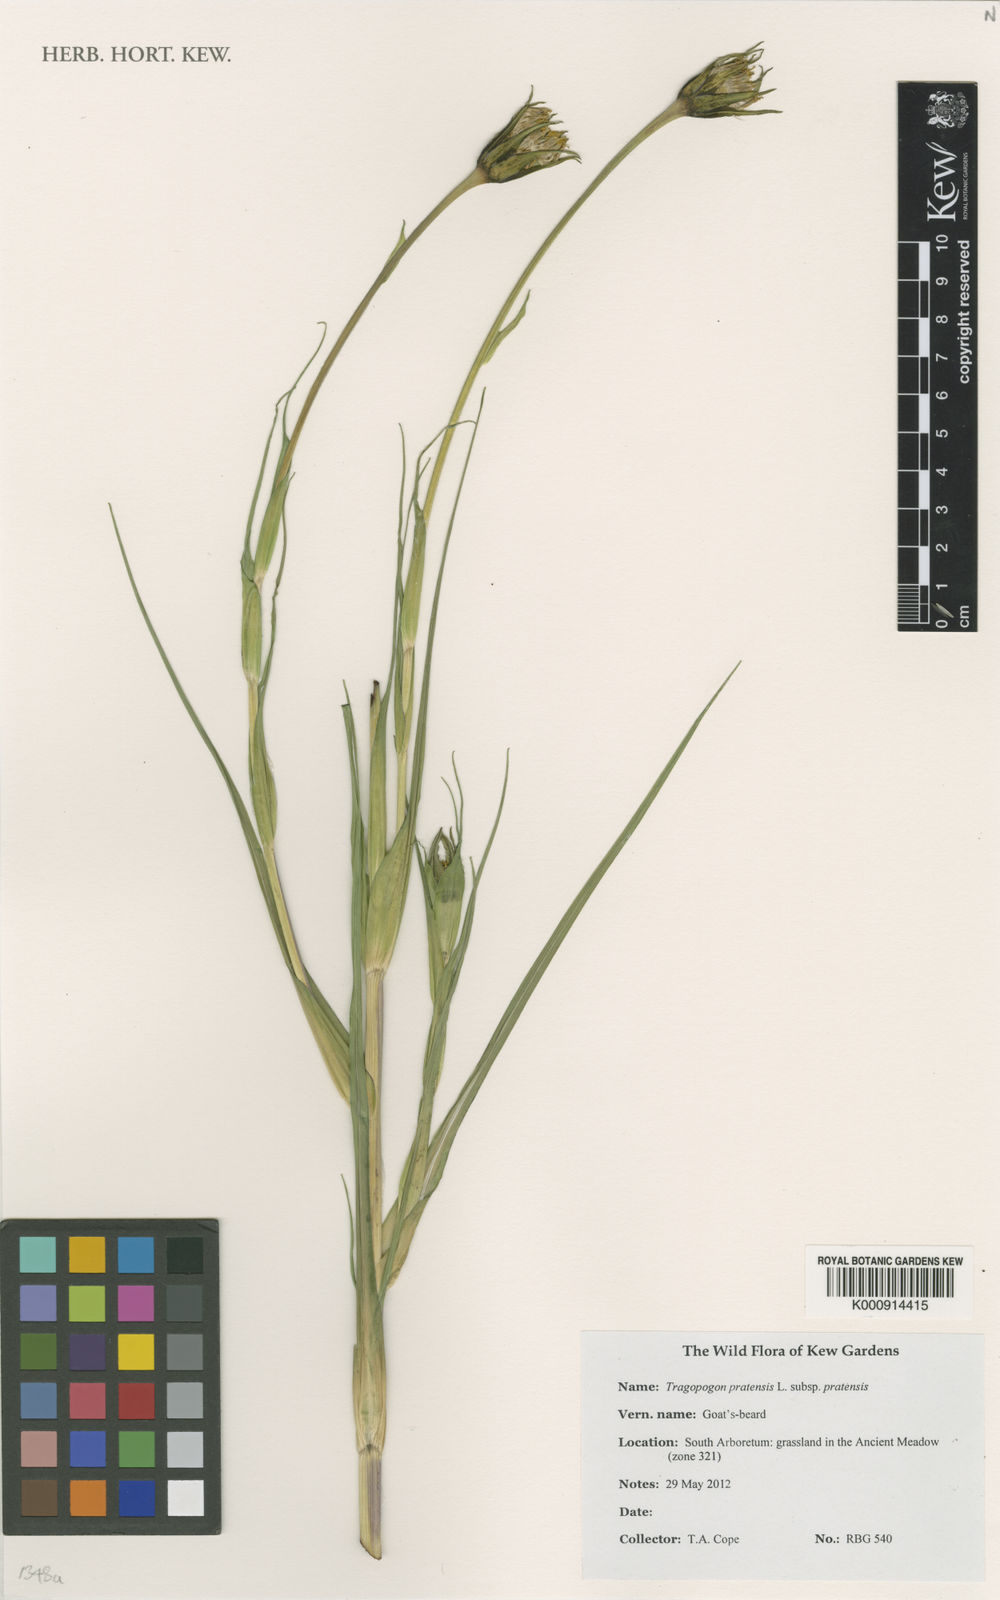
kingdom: Plantae
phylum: Tracheophyta
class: Magnoliopsida
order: Asterales
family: Asteraceae
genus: Tragopogon
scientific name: Tragopogon pratensis
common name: Goat's-beard
